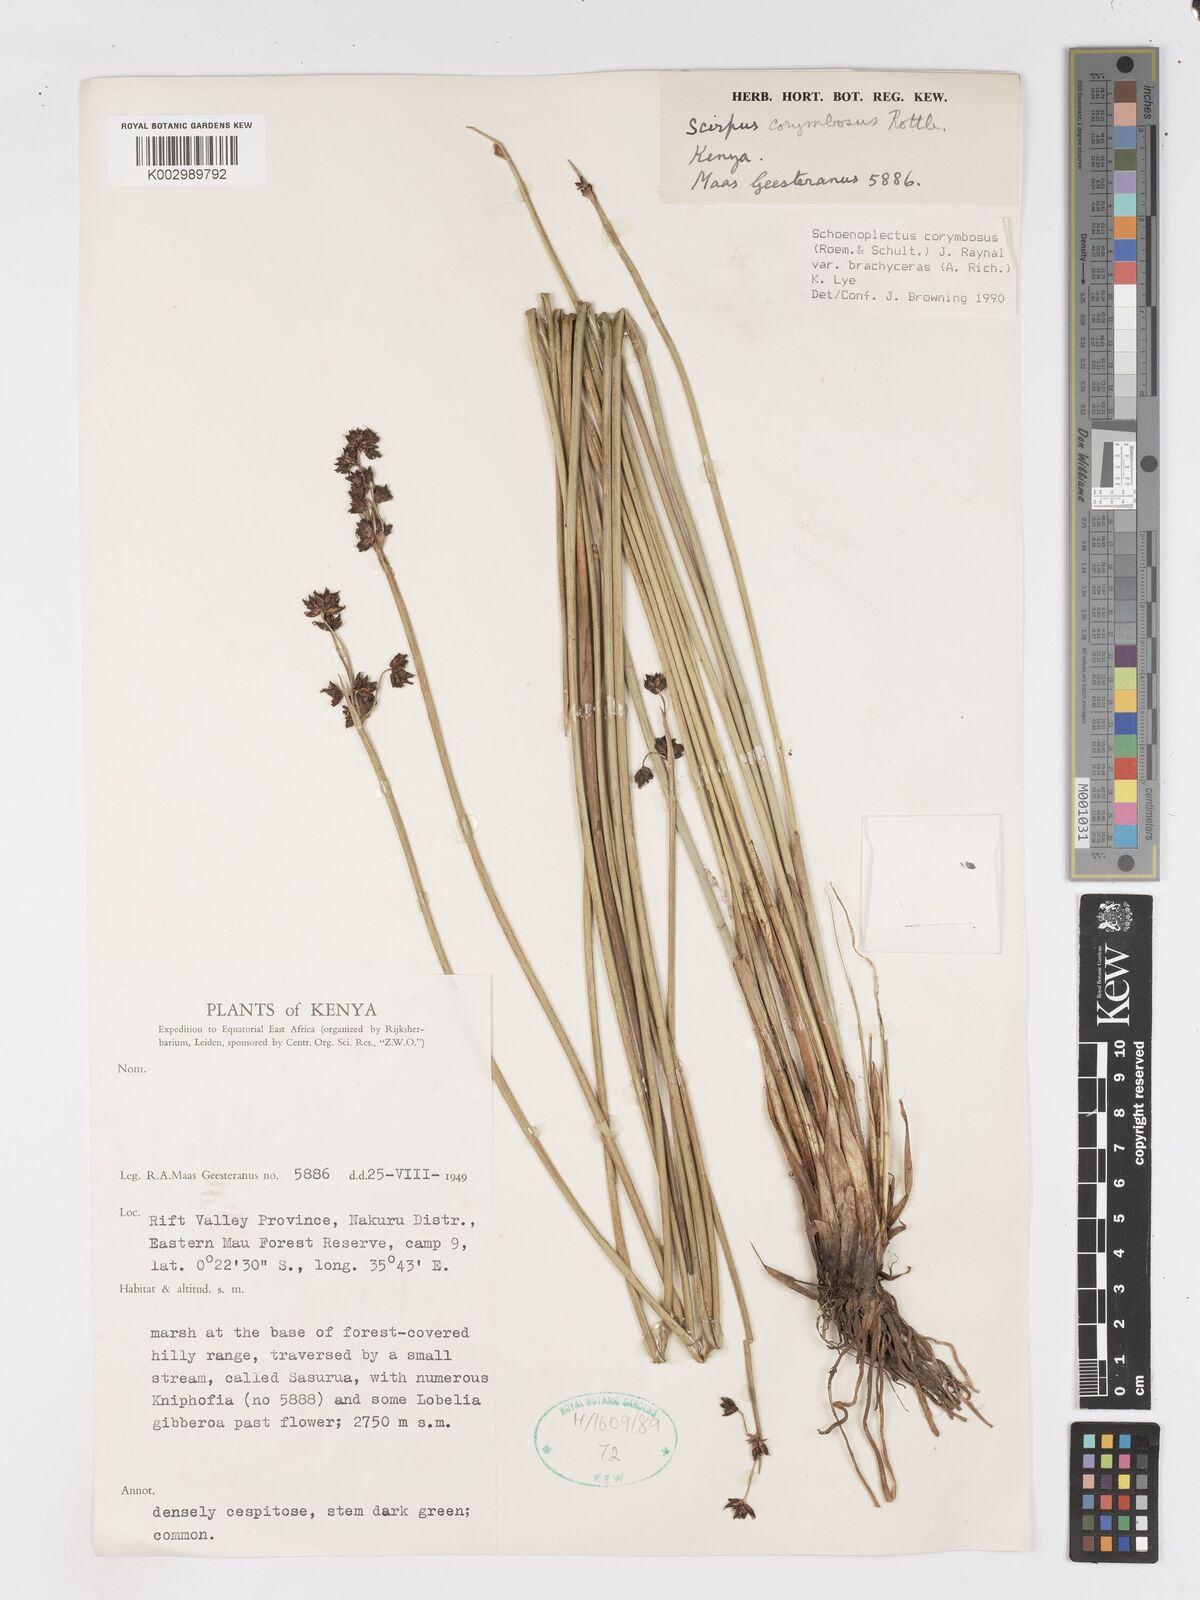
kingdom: Plantae
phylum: Tracheophyta
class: Liliopsida
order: Poales
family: Cyperaceae
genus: Schoenoplectiella
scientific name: Schoenoplectiella brachyceras
